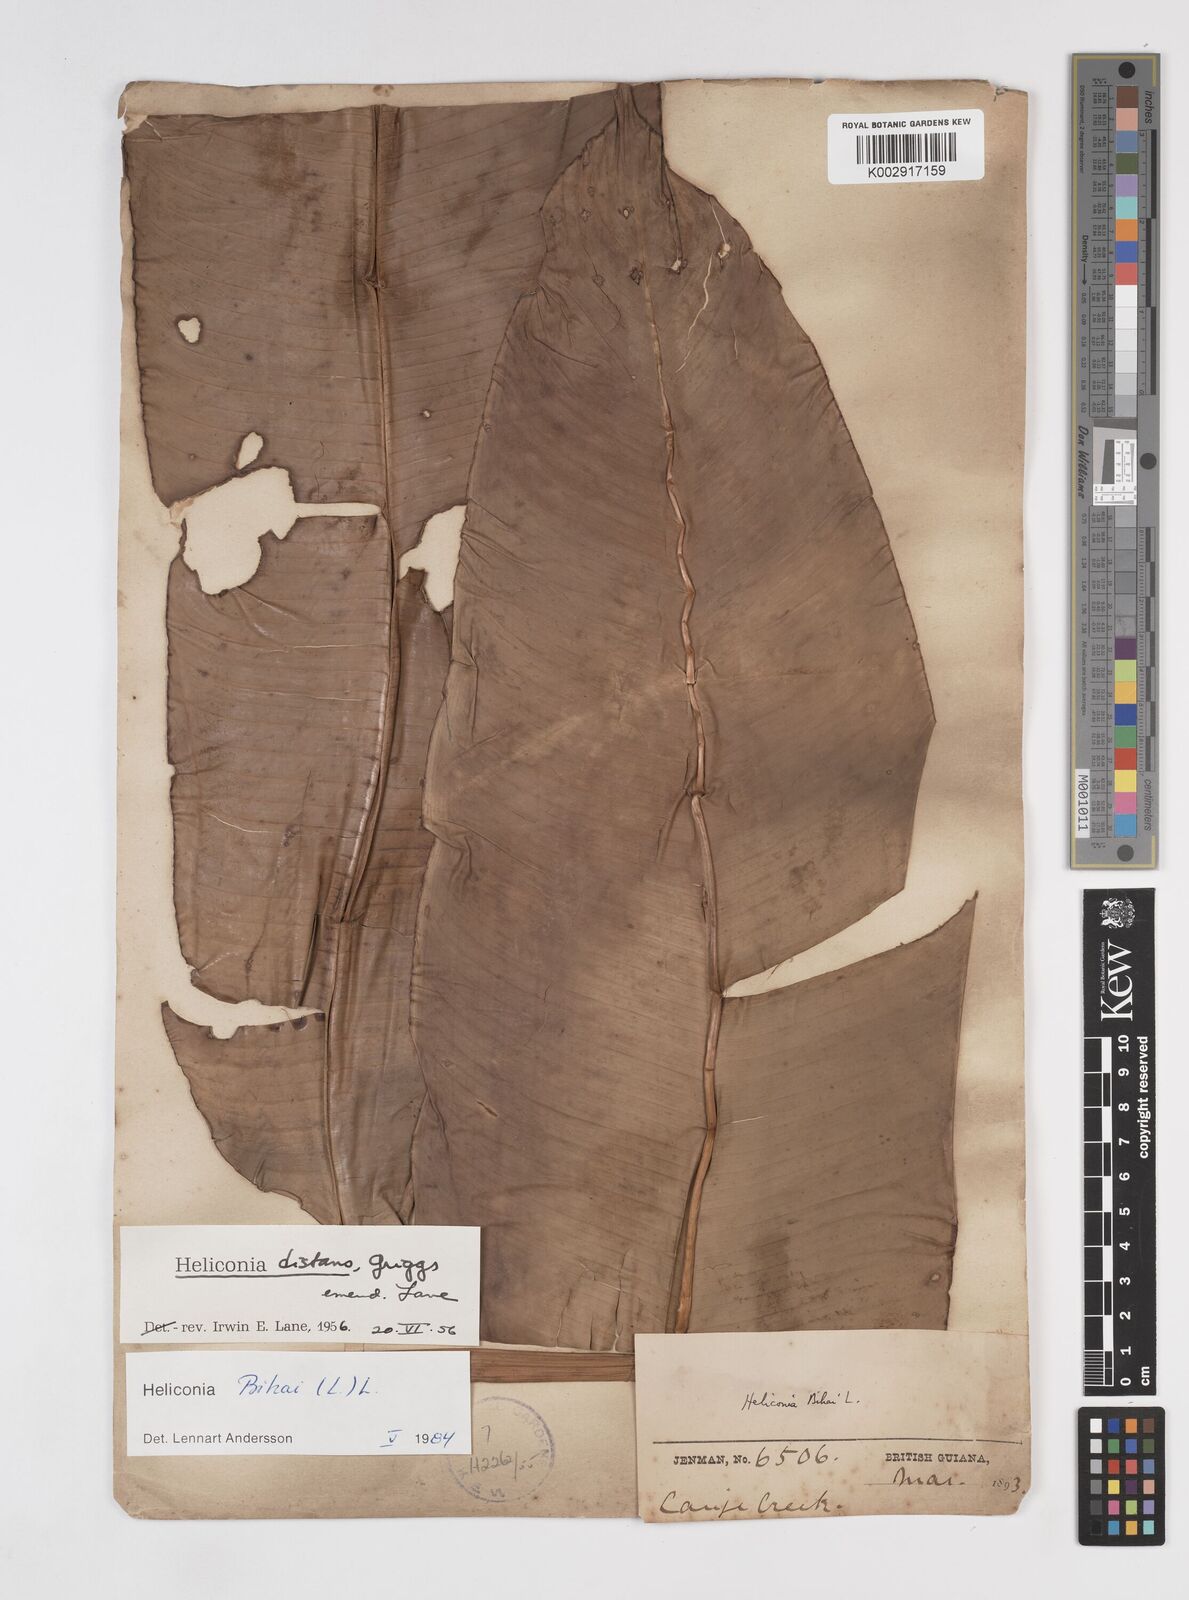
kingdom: Plantae
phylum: Tracheophyta
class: Liliopsida
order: Zingiberales
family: Heliconiaceae
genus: Heliconia
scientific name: Heliconia bihai
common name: Macaw flower
